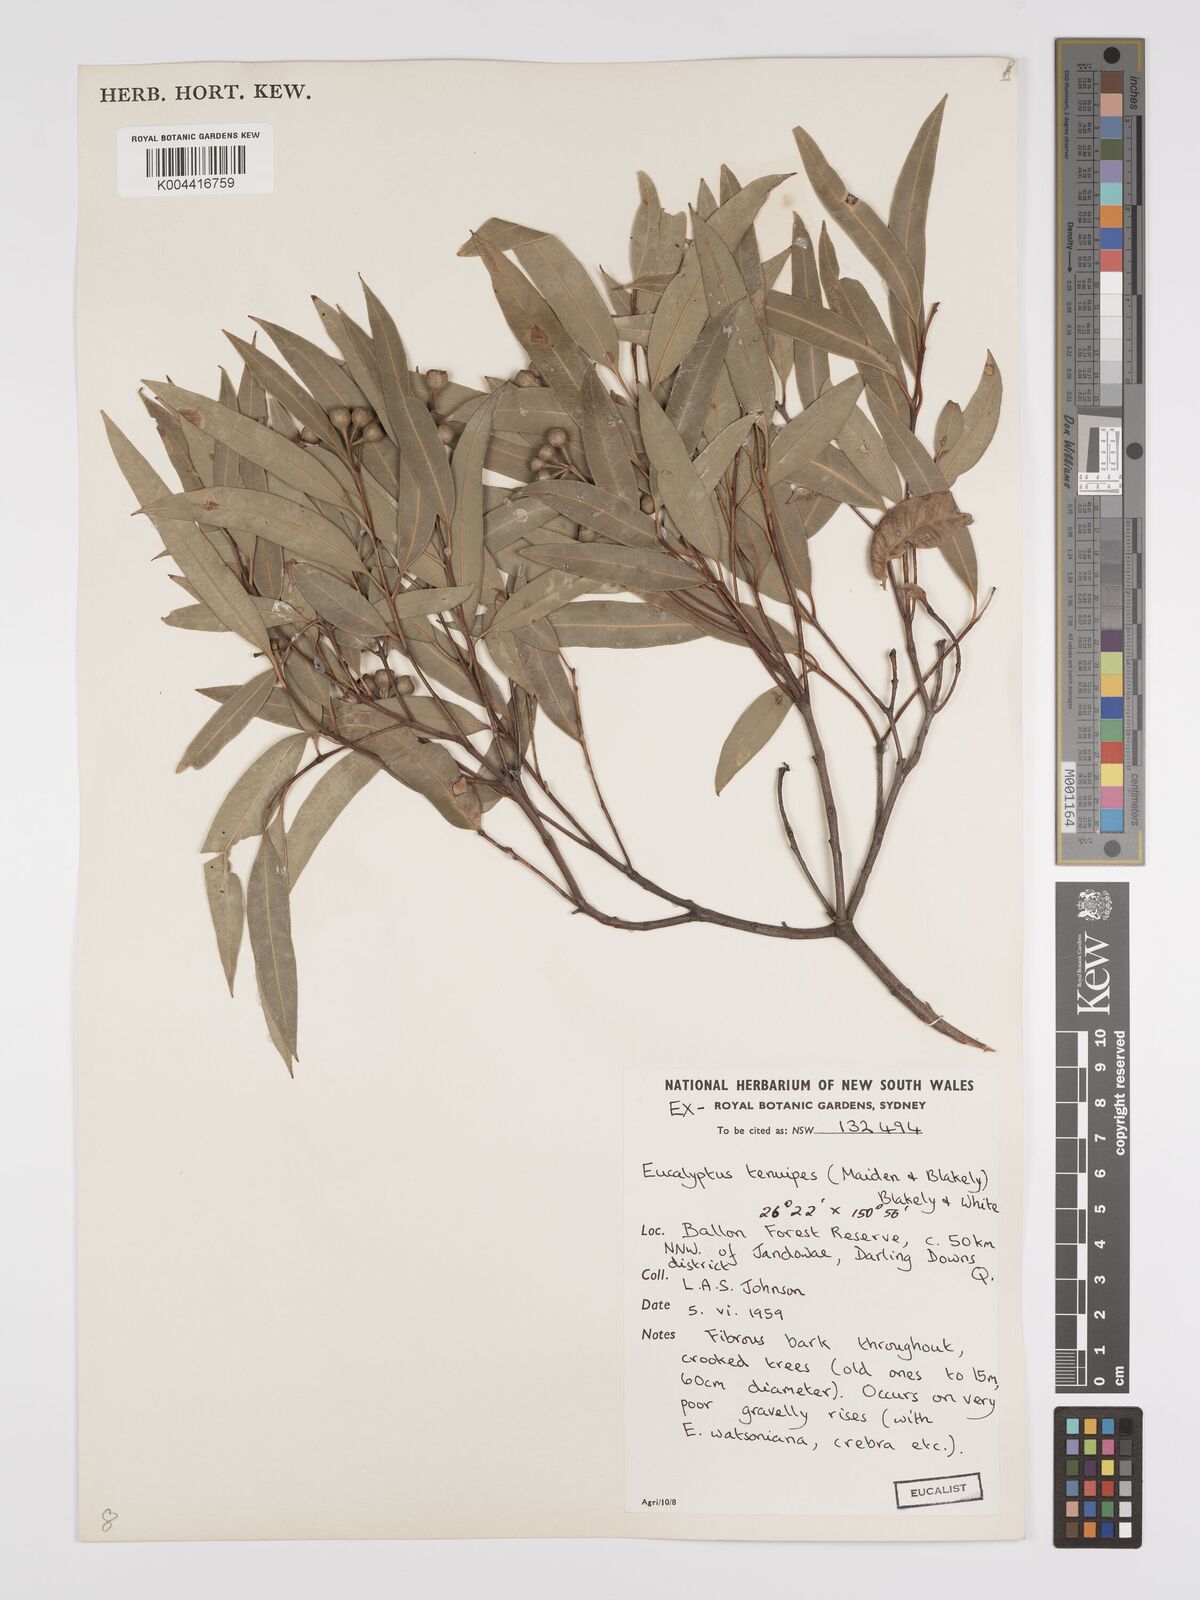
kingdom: Plantae
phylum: Tracheophyta
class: Magnoliopsida
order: Myrtales
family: Myrtaceae
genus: Eucalyptus
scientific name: Eucalyptus tenuipes
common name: Narrow-leaved white mahogany
